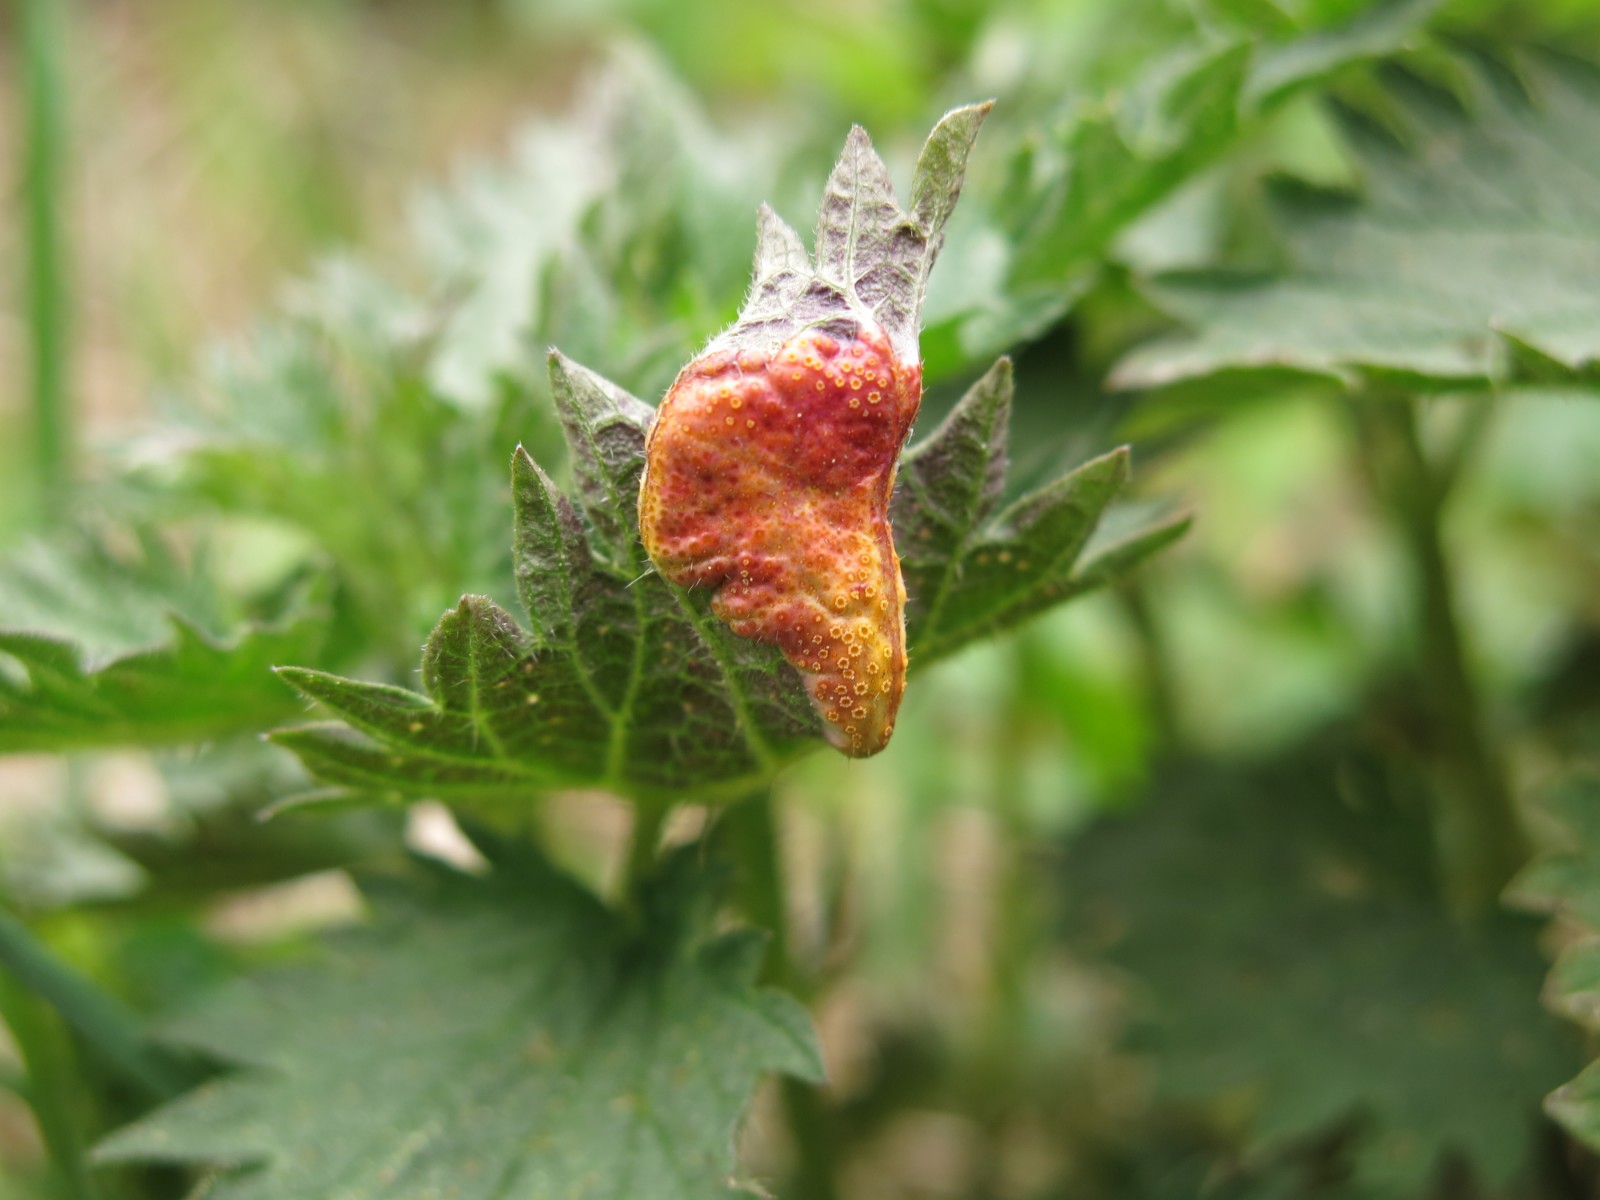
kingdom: Fungi
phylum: Basidiomycota
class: Pucciniomycetes
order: Pucciniales
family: Pucciniaceae
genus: Puccinia
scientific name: Puccinia urticata
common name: nældegalle-tvecellerust
